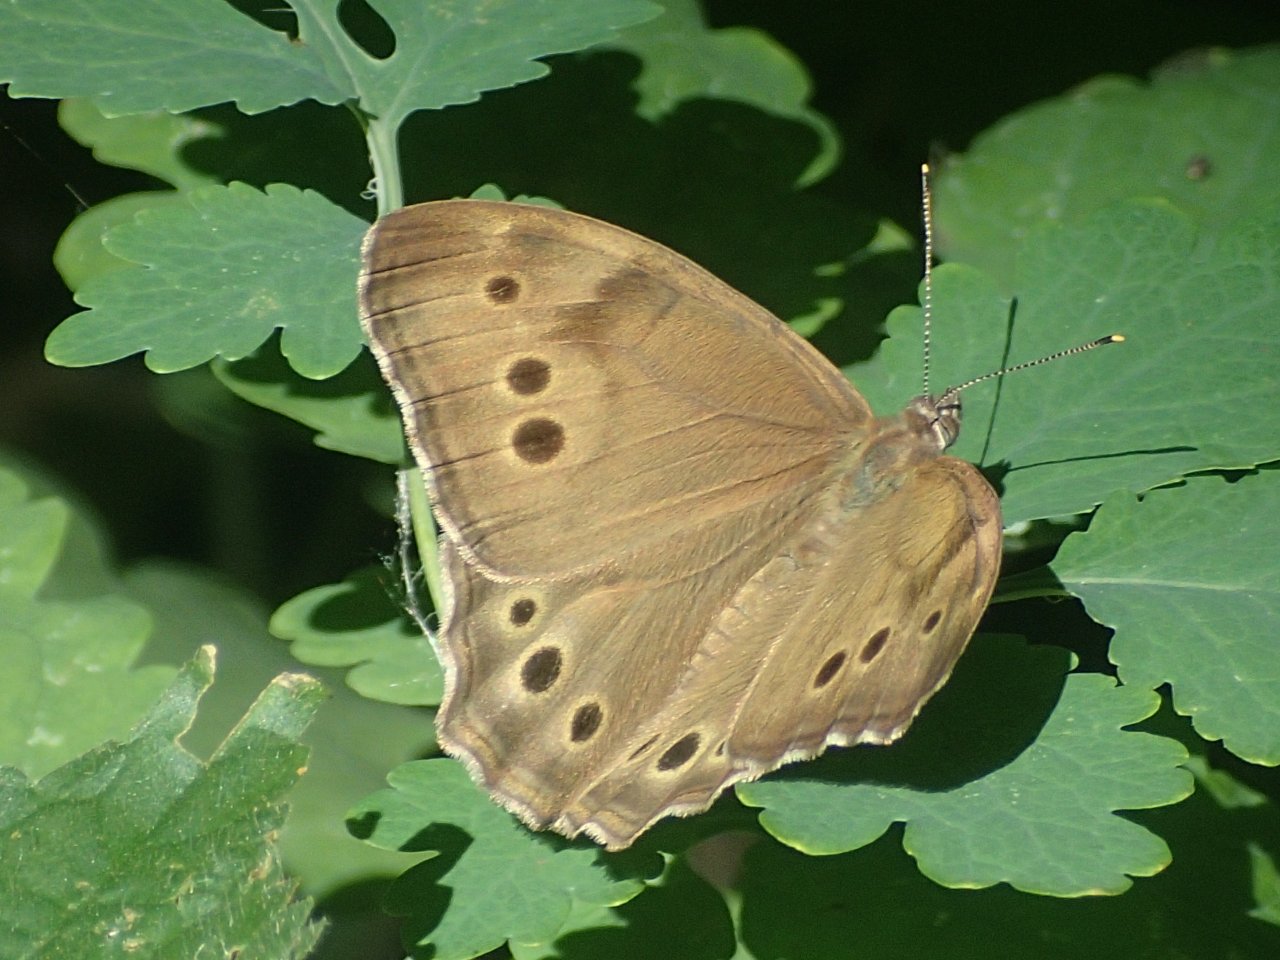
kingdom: Animalia
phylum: Arthropoda
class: Insecta
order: Lepidoptera
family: Nymphalidae
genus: Lethe
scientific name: Lethe anthedon
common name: Northern Pearly-Eye
